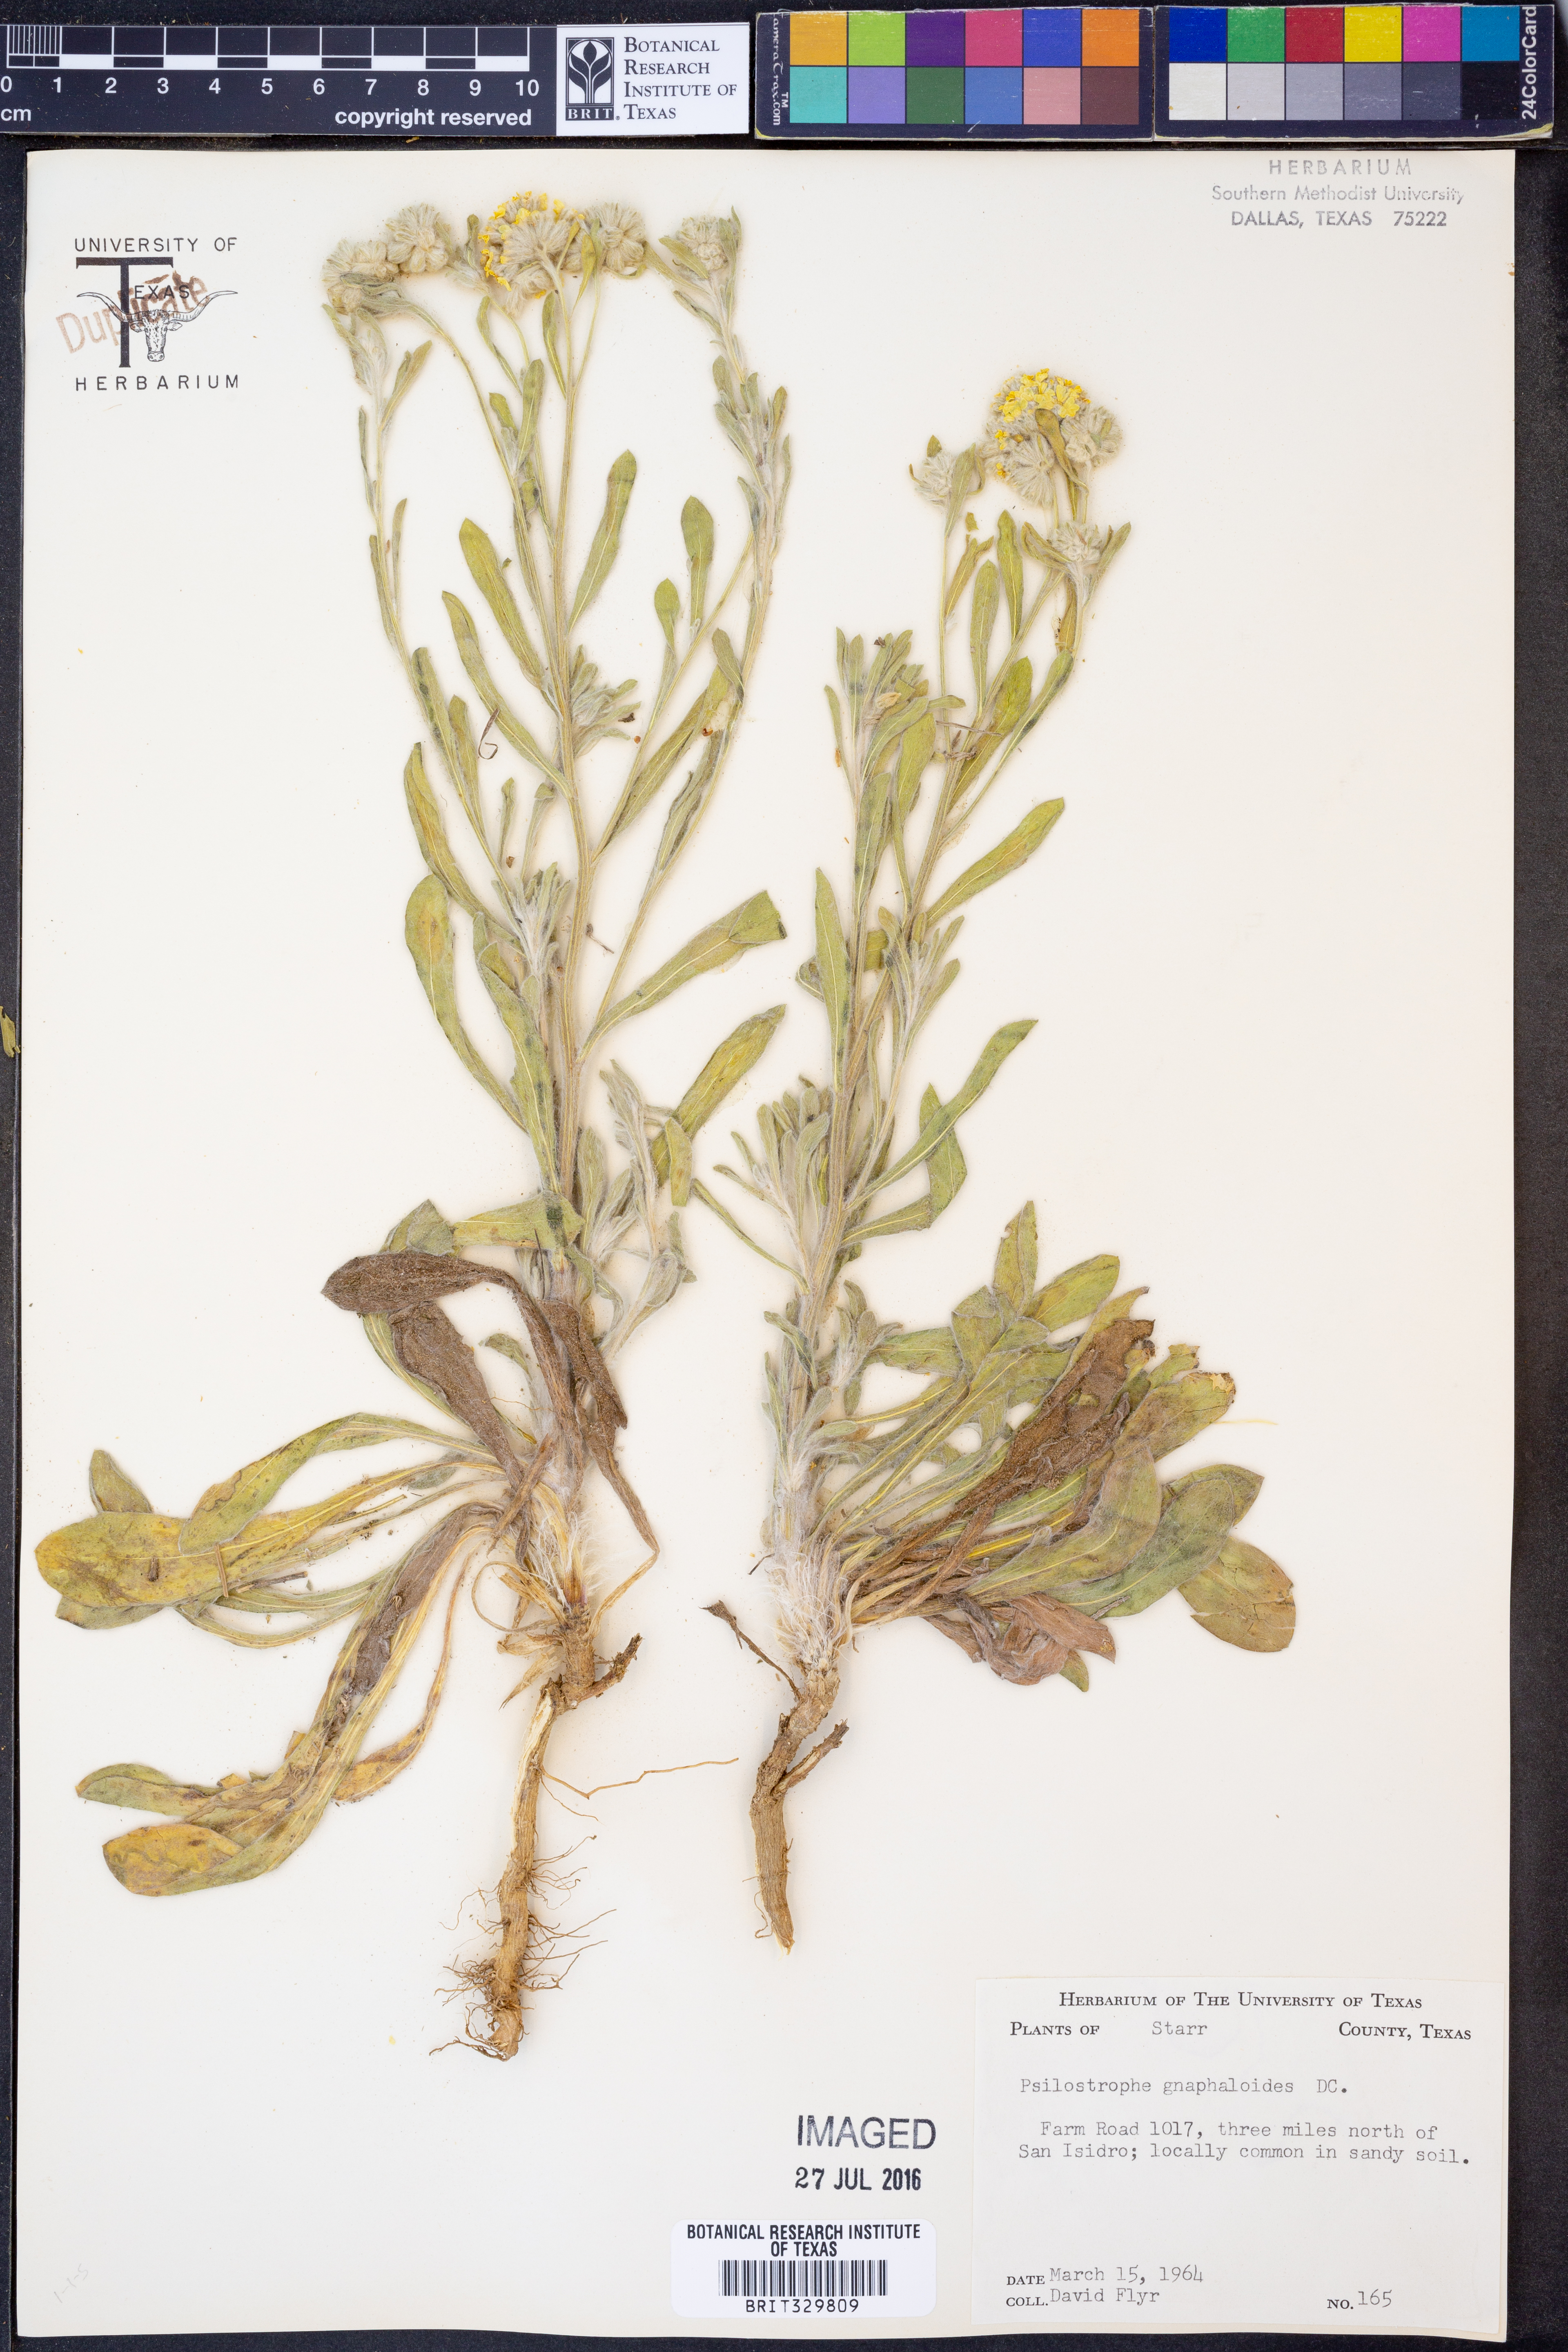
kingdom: Plantae
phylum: Tracheophyta
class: Magnoliopsida
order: Asterales
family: Asteraceae
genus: Psilostrophe
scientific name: Psilostrophe gnaphalioides
